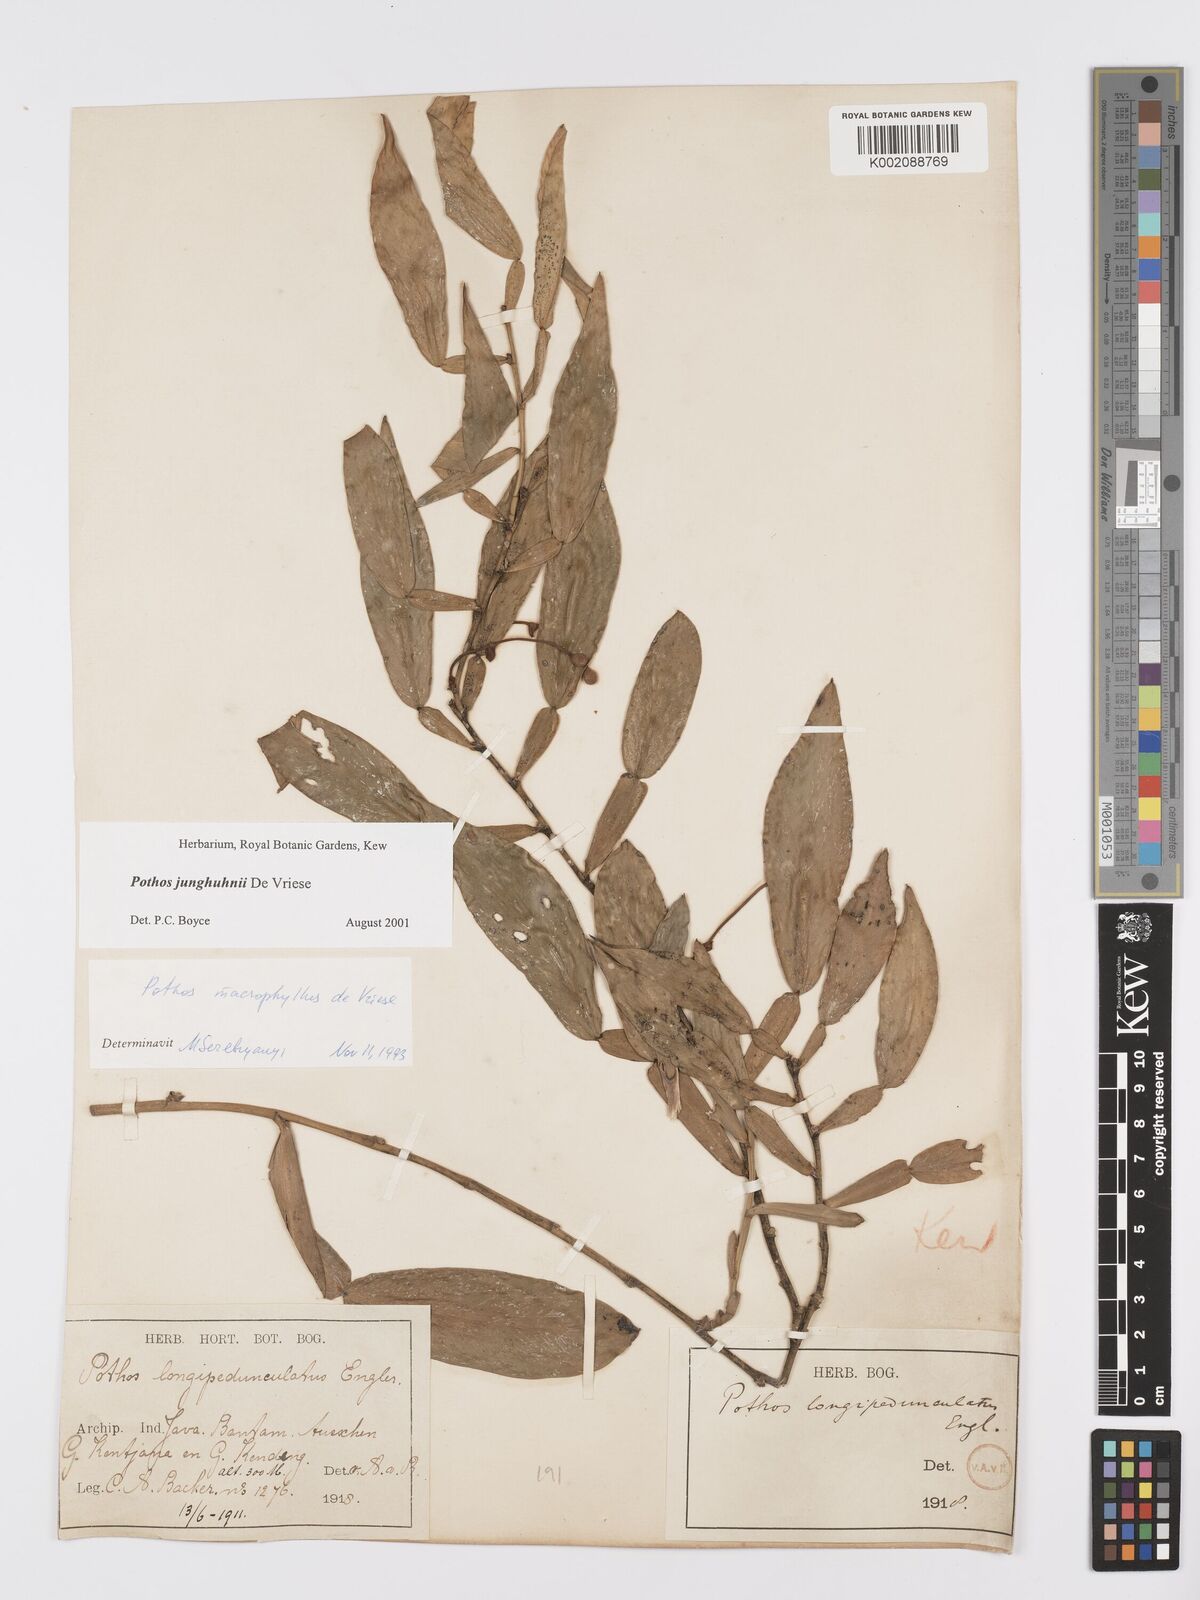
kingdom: Plantae
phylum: Tracheophyta
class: Liliopsida
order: Alismatales
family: Araceae
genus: Pothos
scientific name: Pothos junghuhnii
